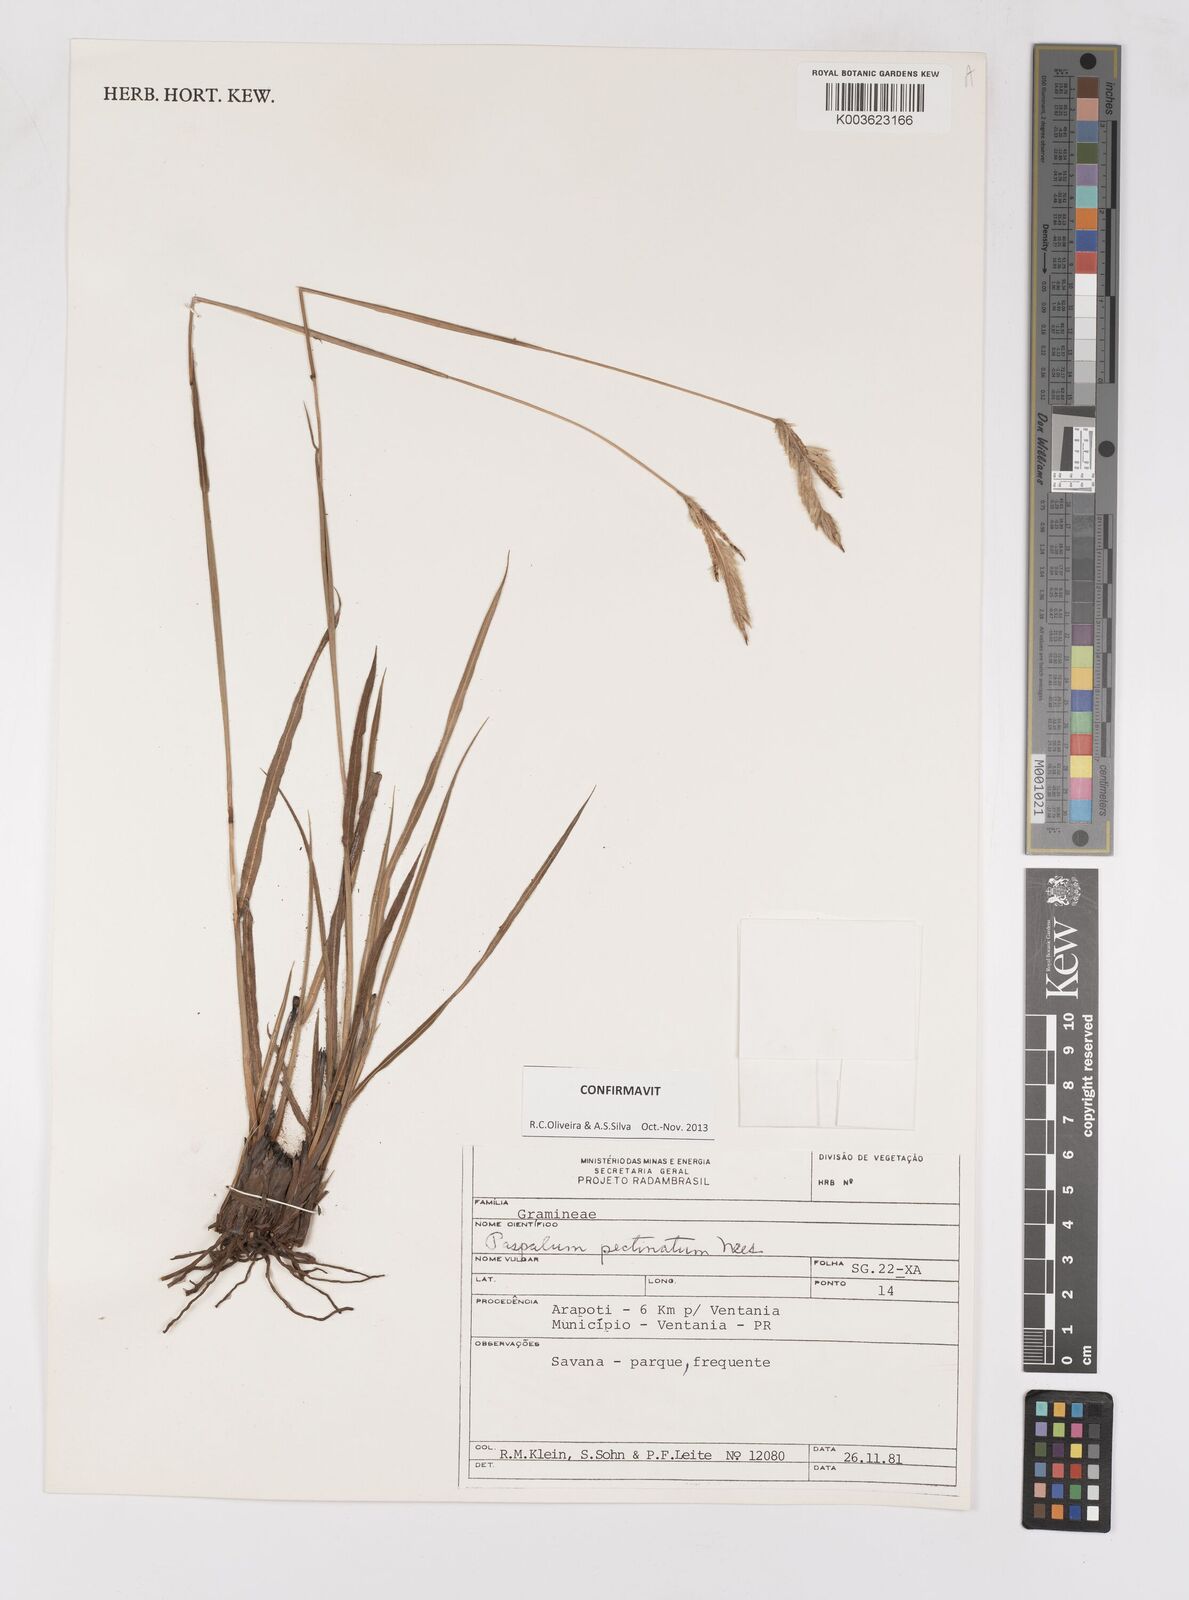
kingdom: Plantae
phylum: Tracheophyta
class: Liliopsida
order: Poales
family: Poaceae
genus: Paspalum
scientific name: Paspalum pectinatum
